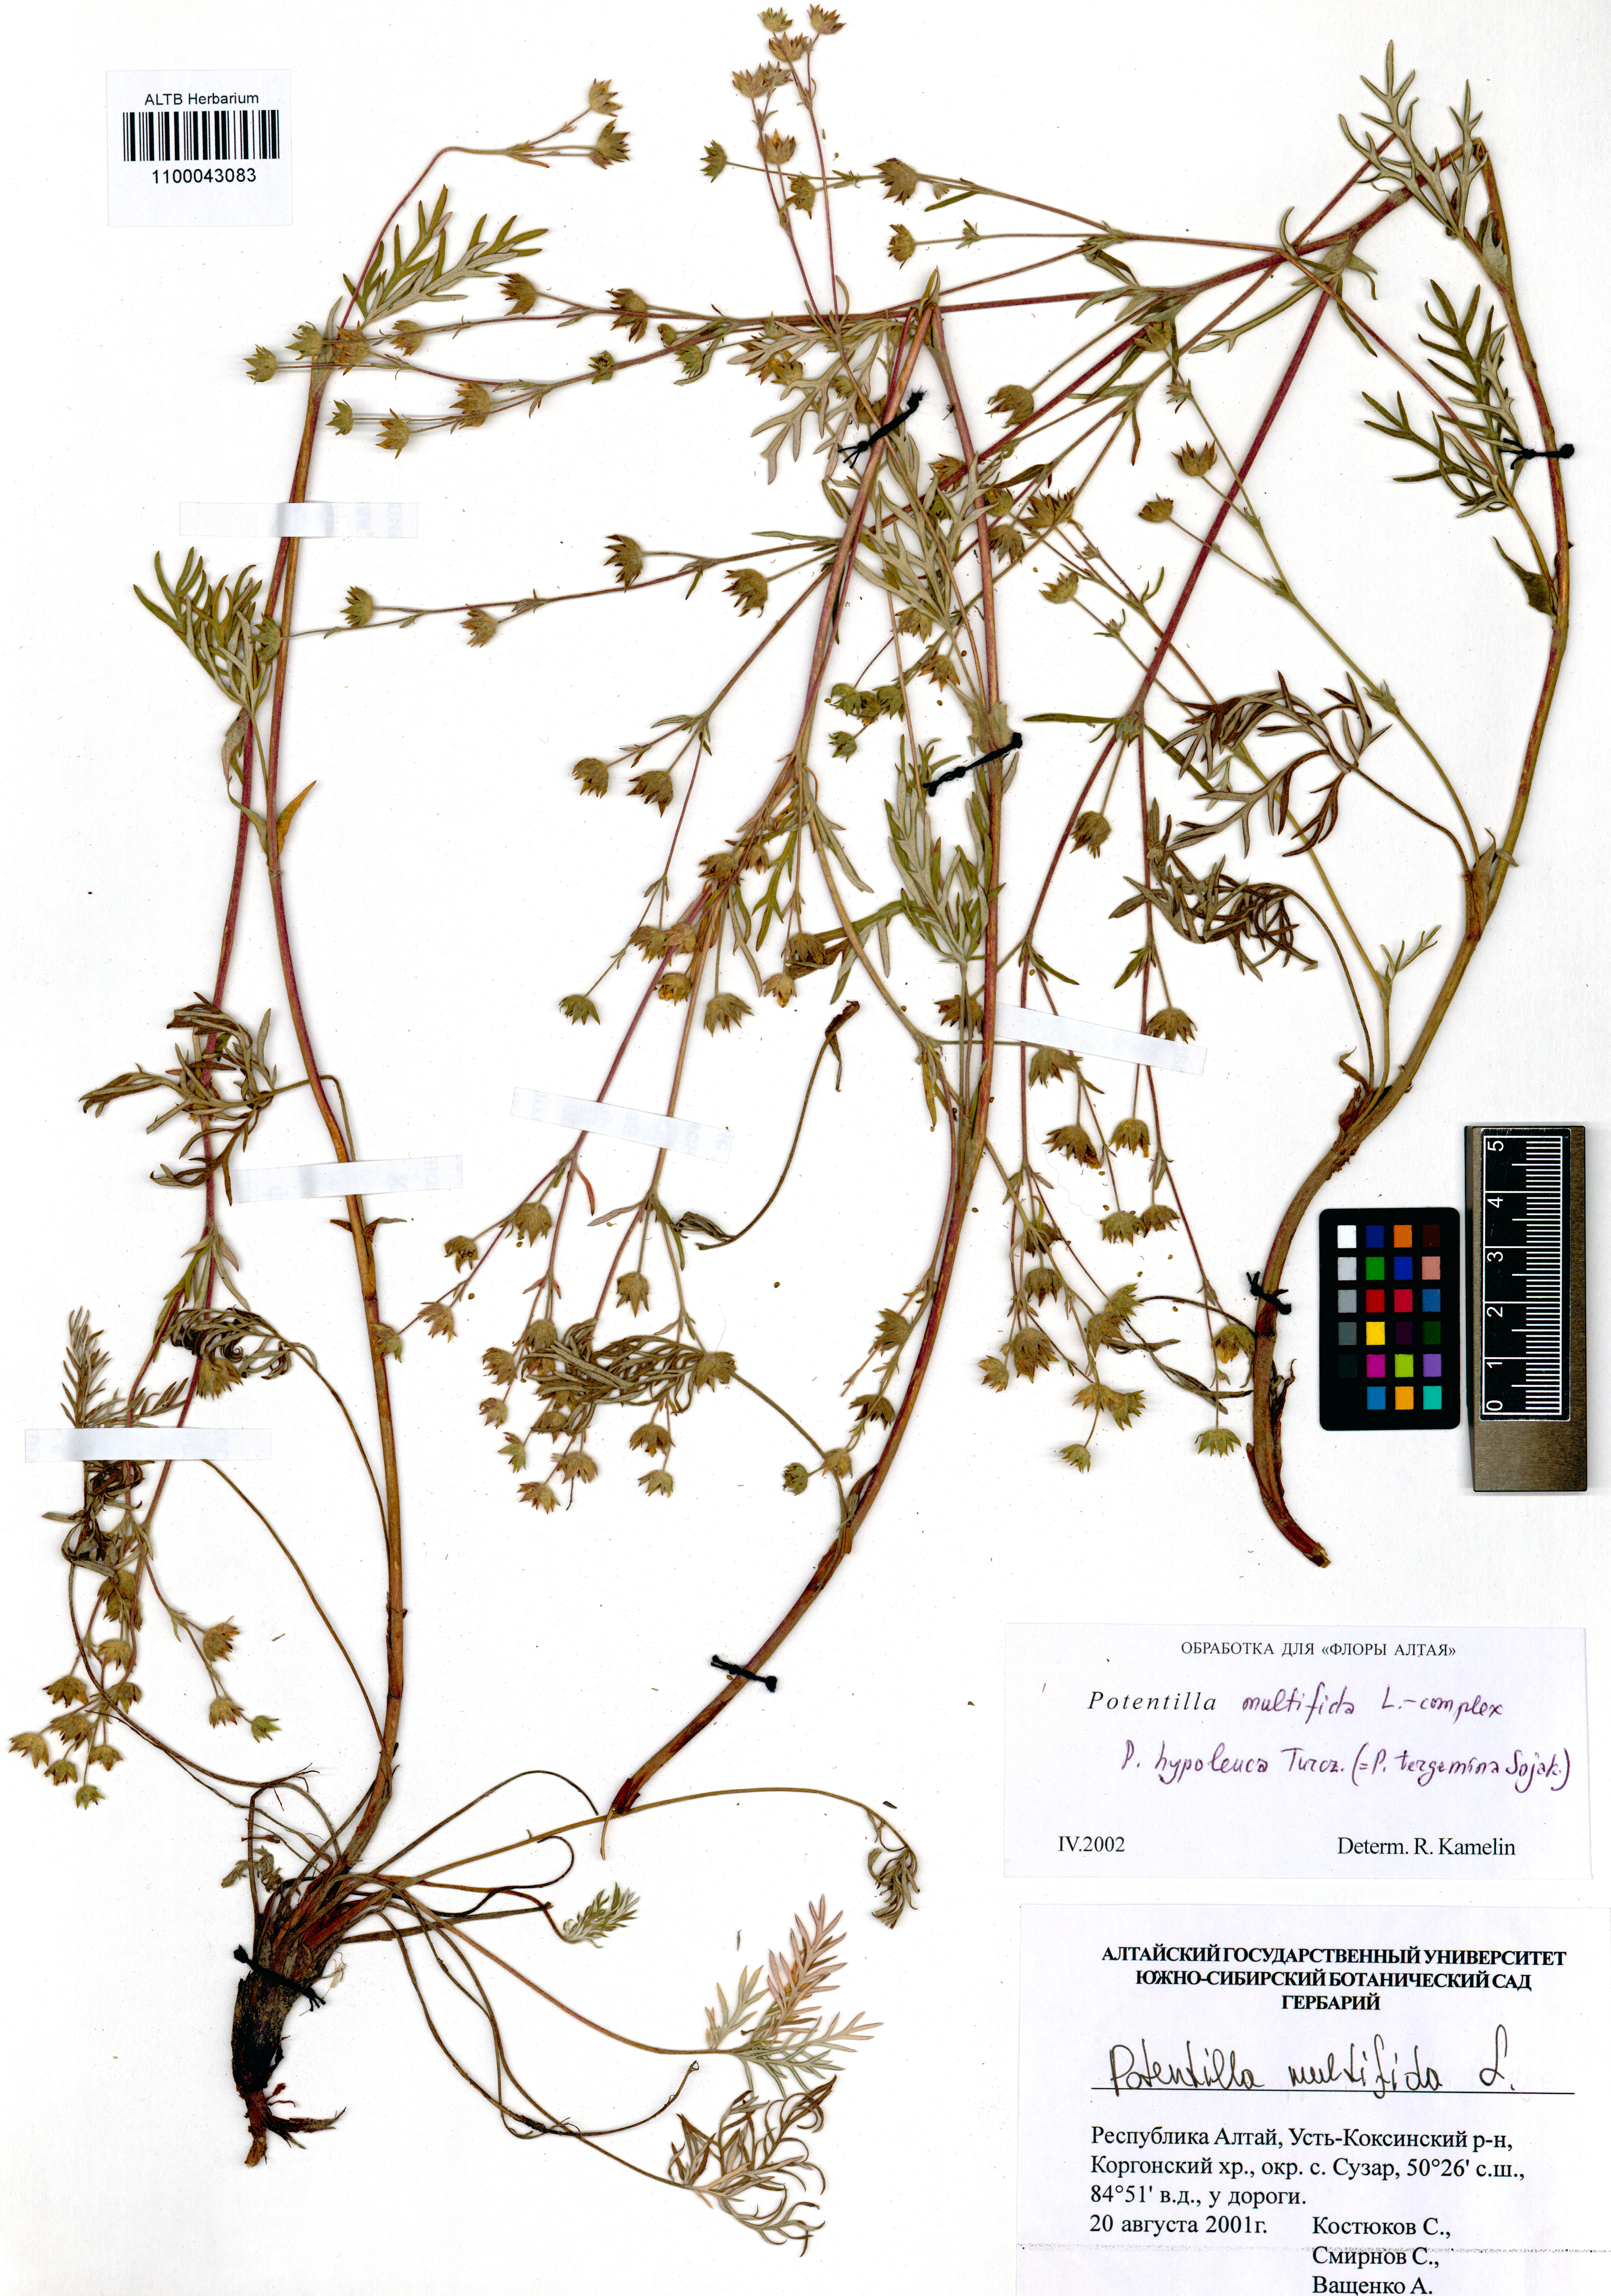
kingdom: Plantae
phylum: Tracheophyta
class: Magnoliopsida
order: Rosales
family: Rosaceae
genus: Potentilla
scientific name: Potentilla multifida
